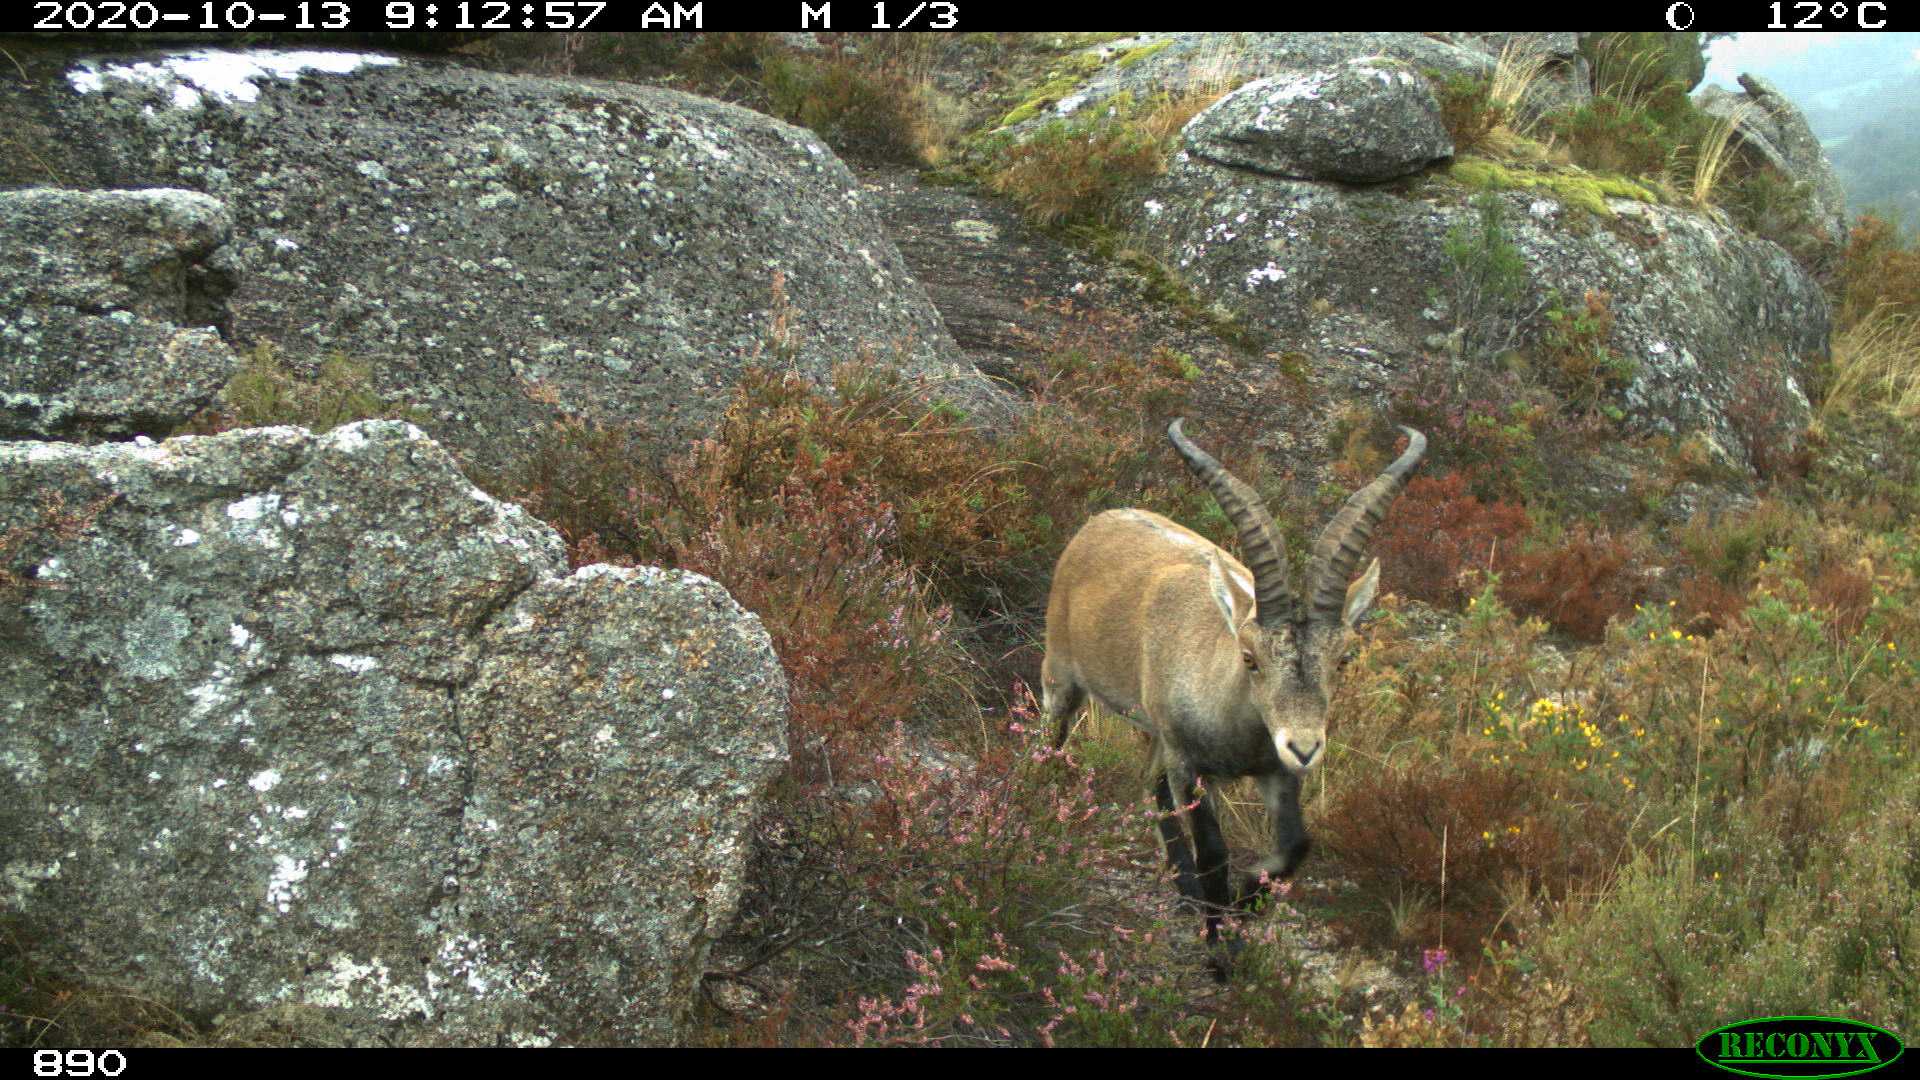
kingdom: Animalia
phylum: Chordata
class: Mammalia
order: Artiodactyla
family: Bovidae
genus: Capra
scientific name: Capra pyrenaica
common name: Spanish ibex
